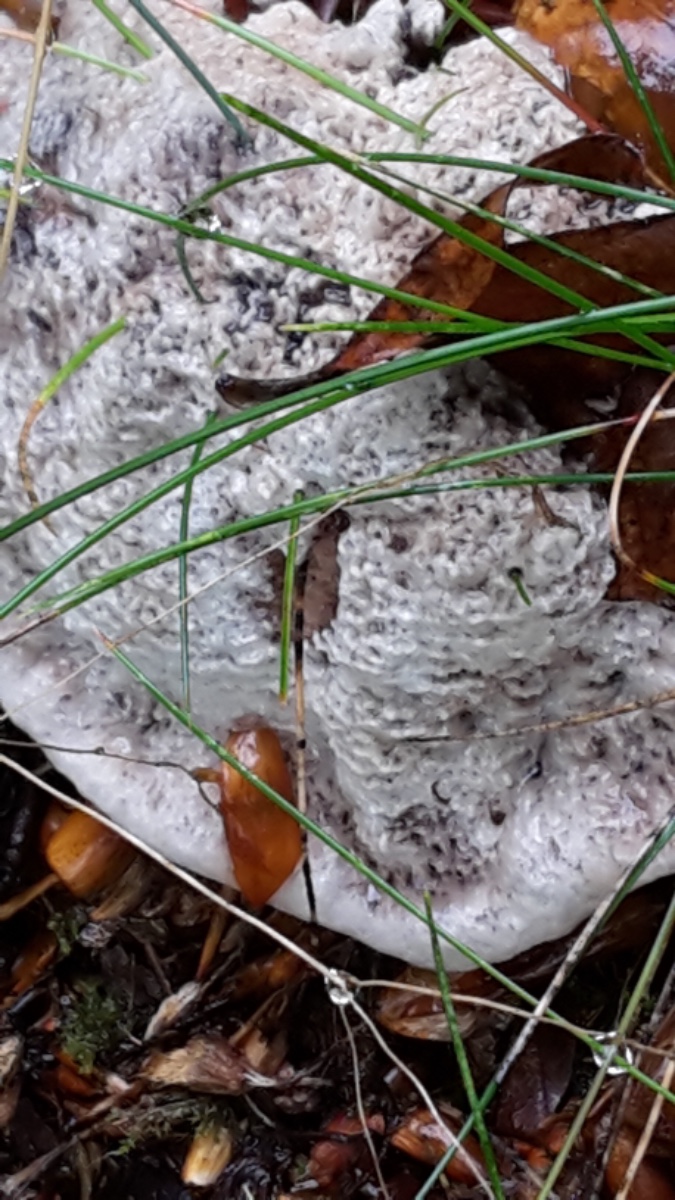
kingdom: Fungi
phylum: Basidiomycota
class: Agaricomycetes
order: Thelephorales
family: Thelephoraceae
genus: Phellodon
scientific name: Phellodon confluens
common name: pjaltet duftpigsvamp
